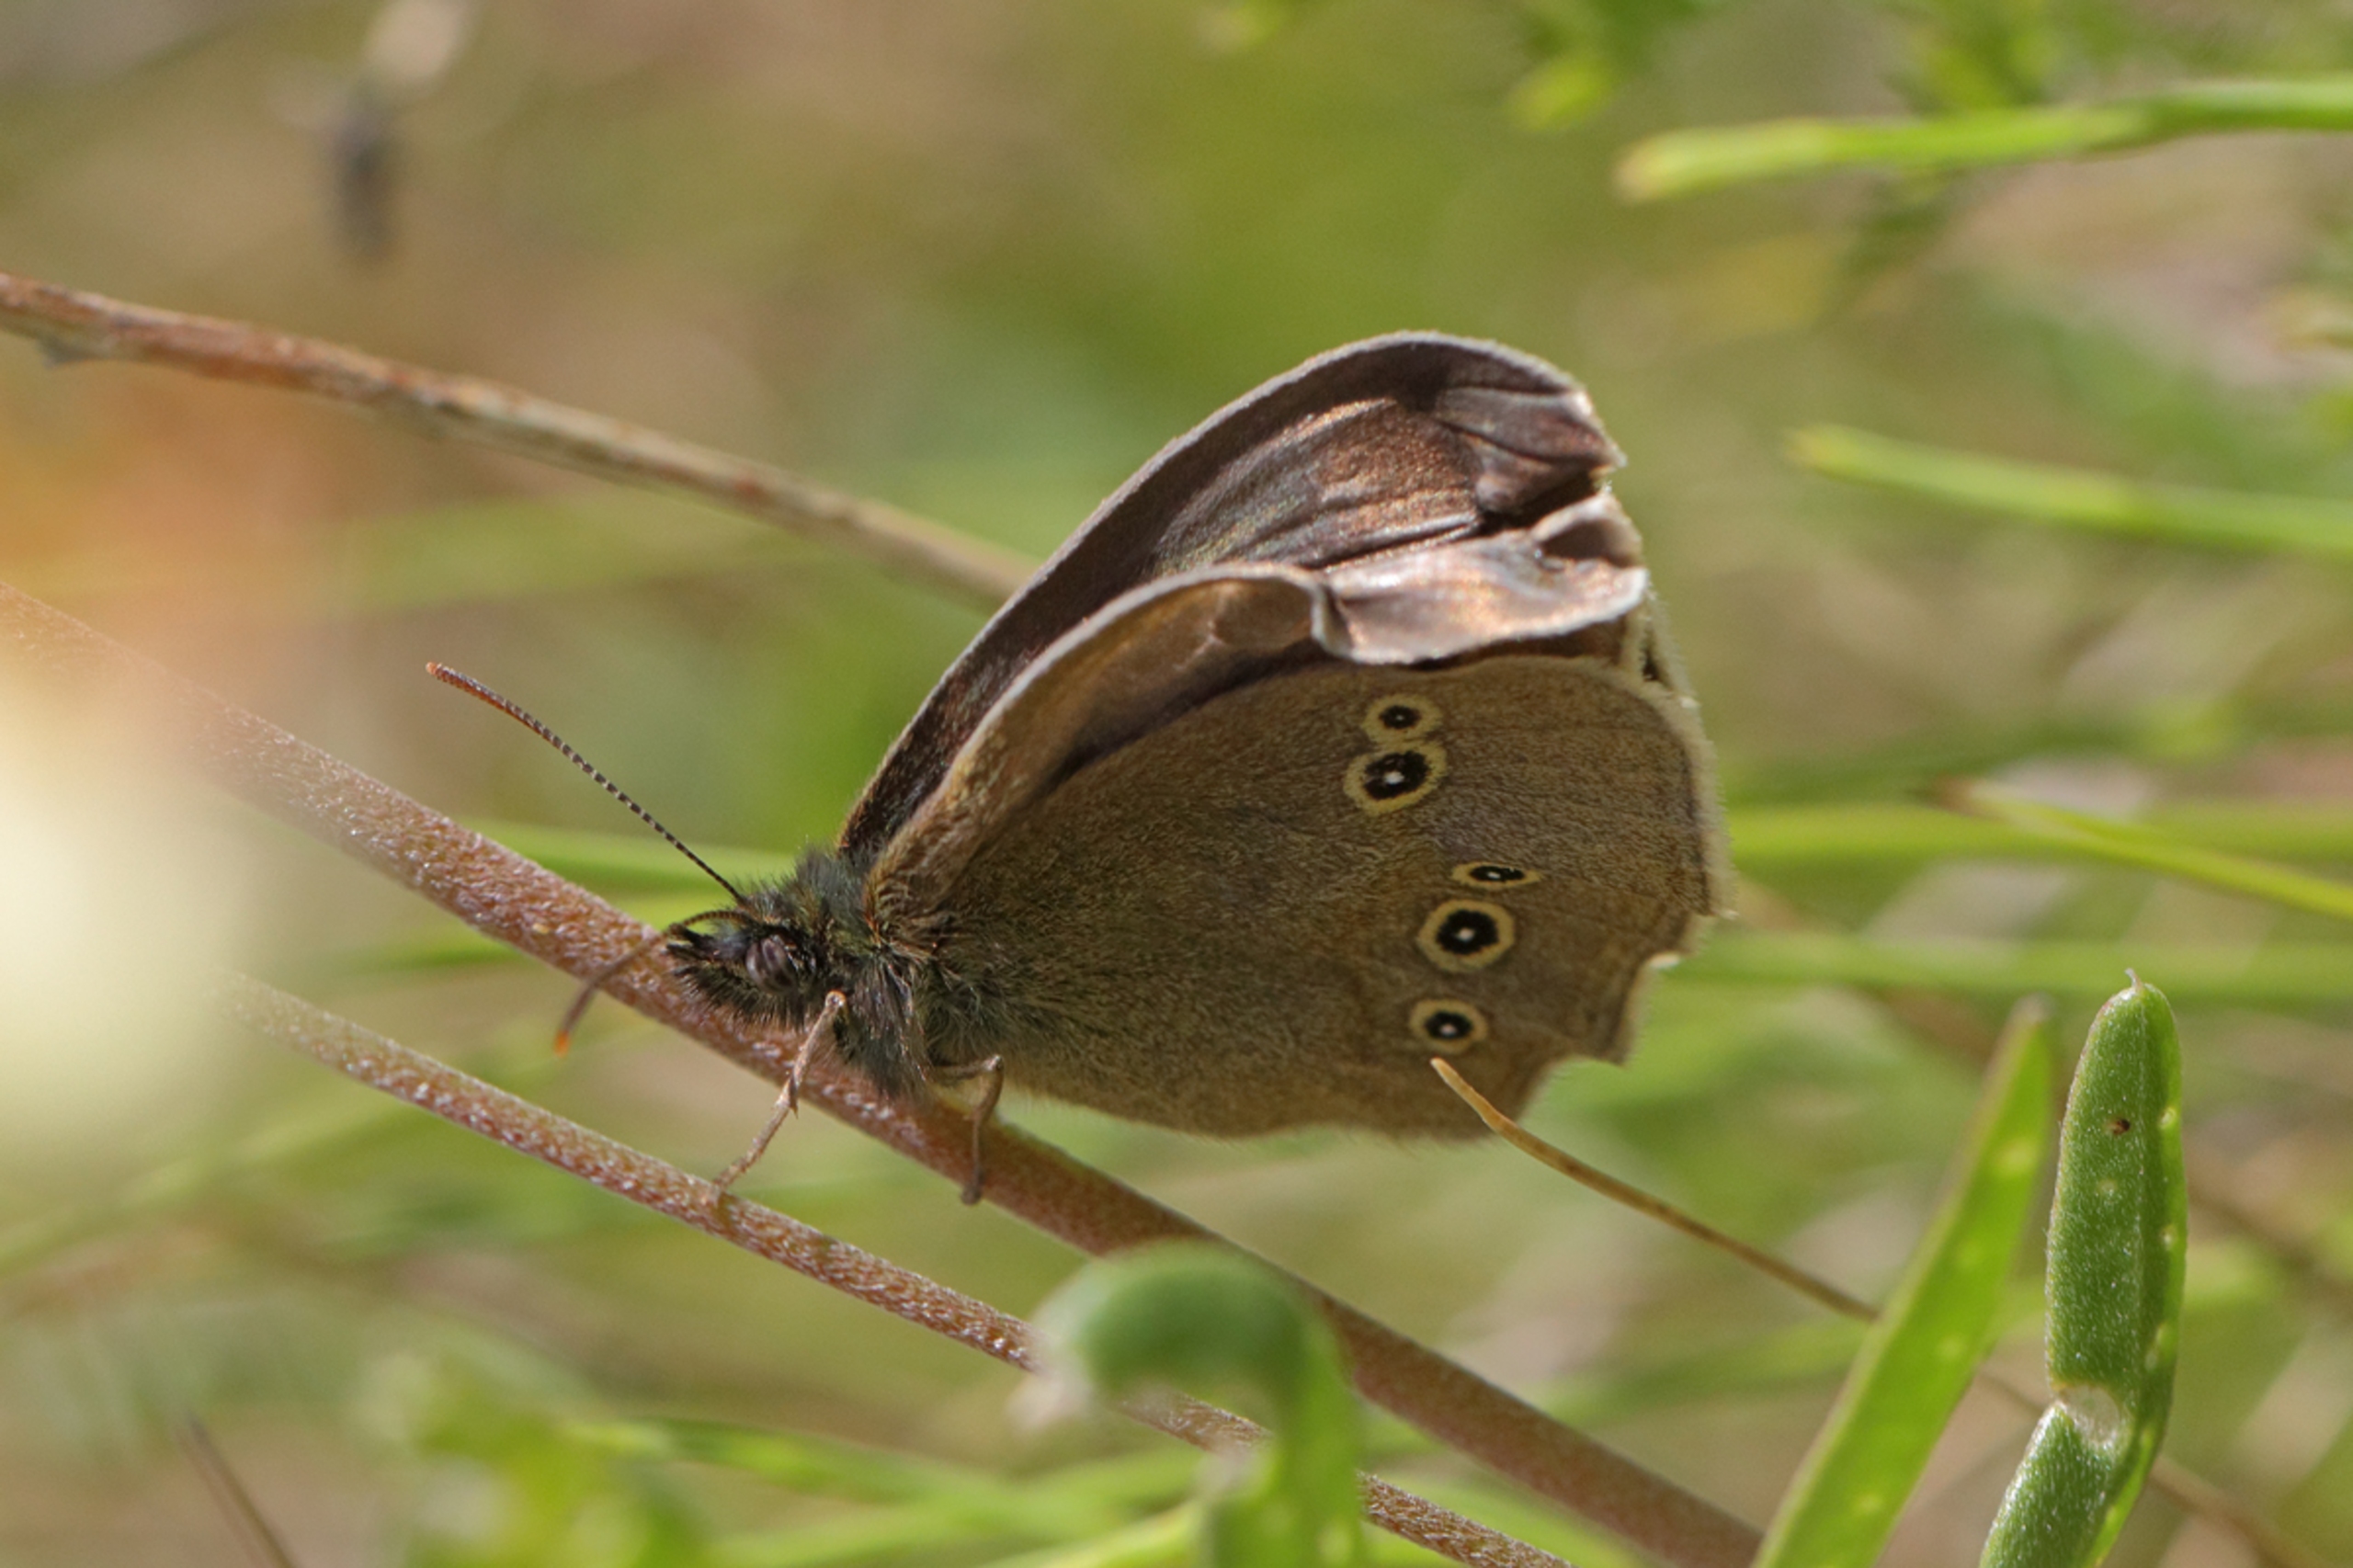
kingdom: Animalia
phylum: Arthropoda
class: Insecta
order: Lepidoptera
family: Nymphalidae
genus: Aphantopus
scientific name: Aphantopus hyperantus
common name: Engrandøje
